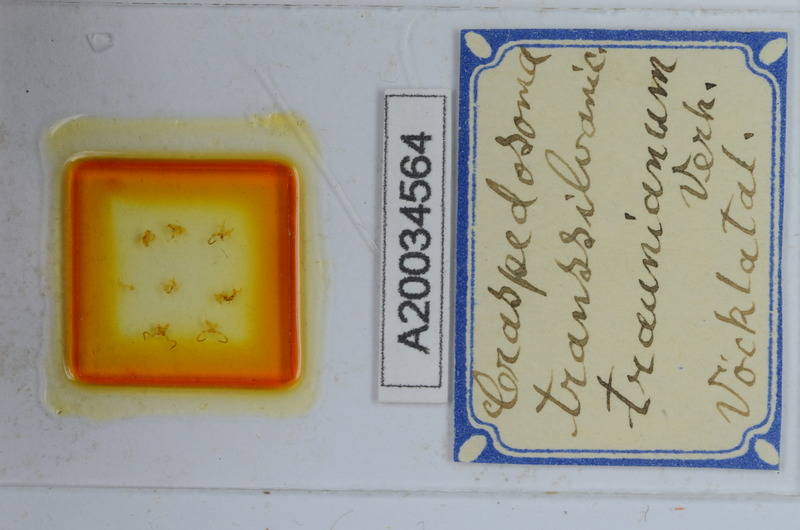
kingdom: Animalia
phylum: Arthropoda
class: Diplopoda
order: Chordeumatida
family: Craspedosomatidae
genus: Craspedosoma
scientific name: Craspedosoma transsilvanicum
